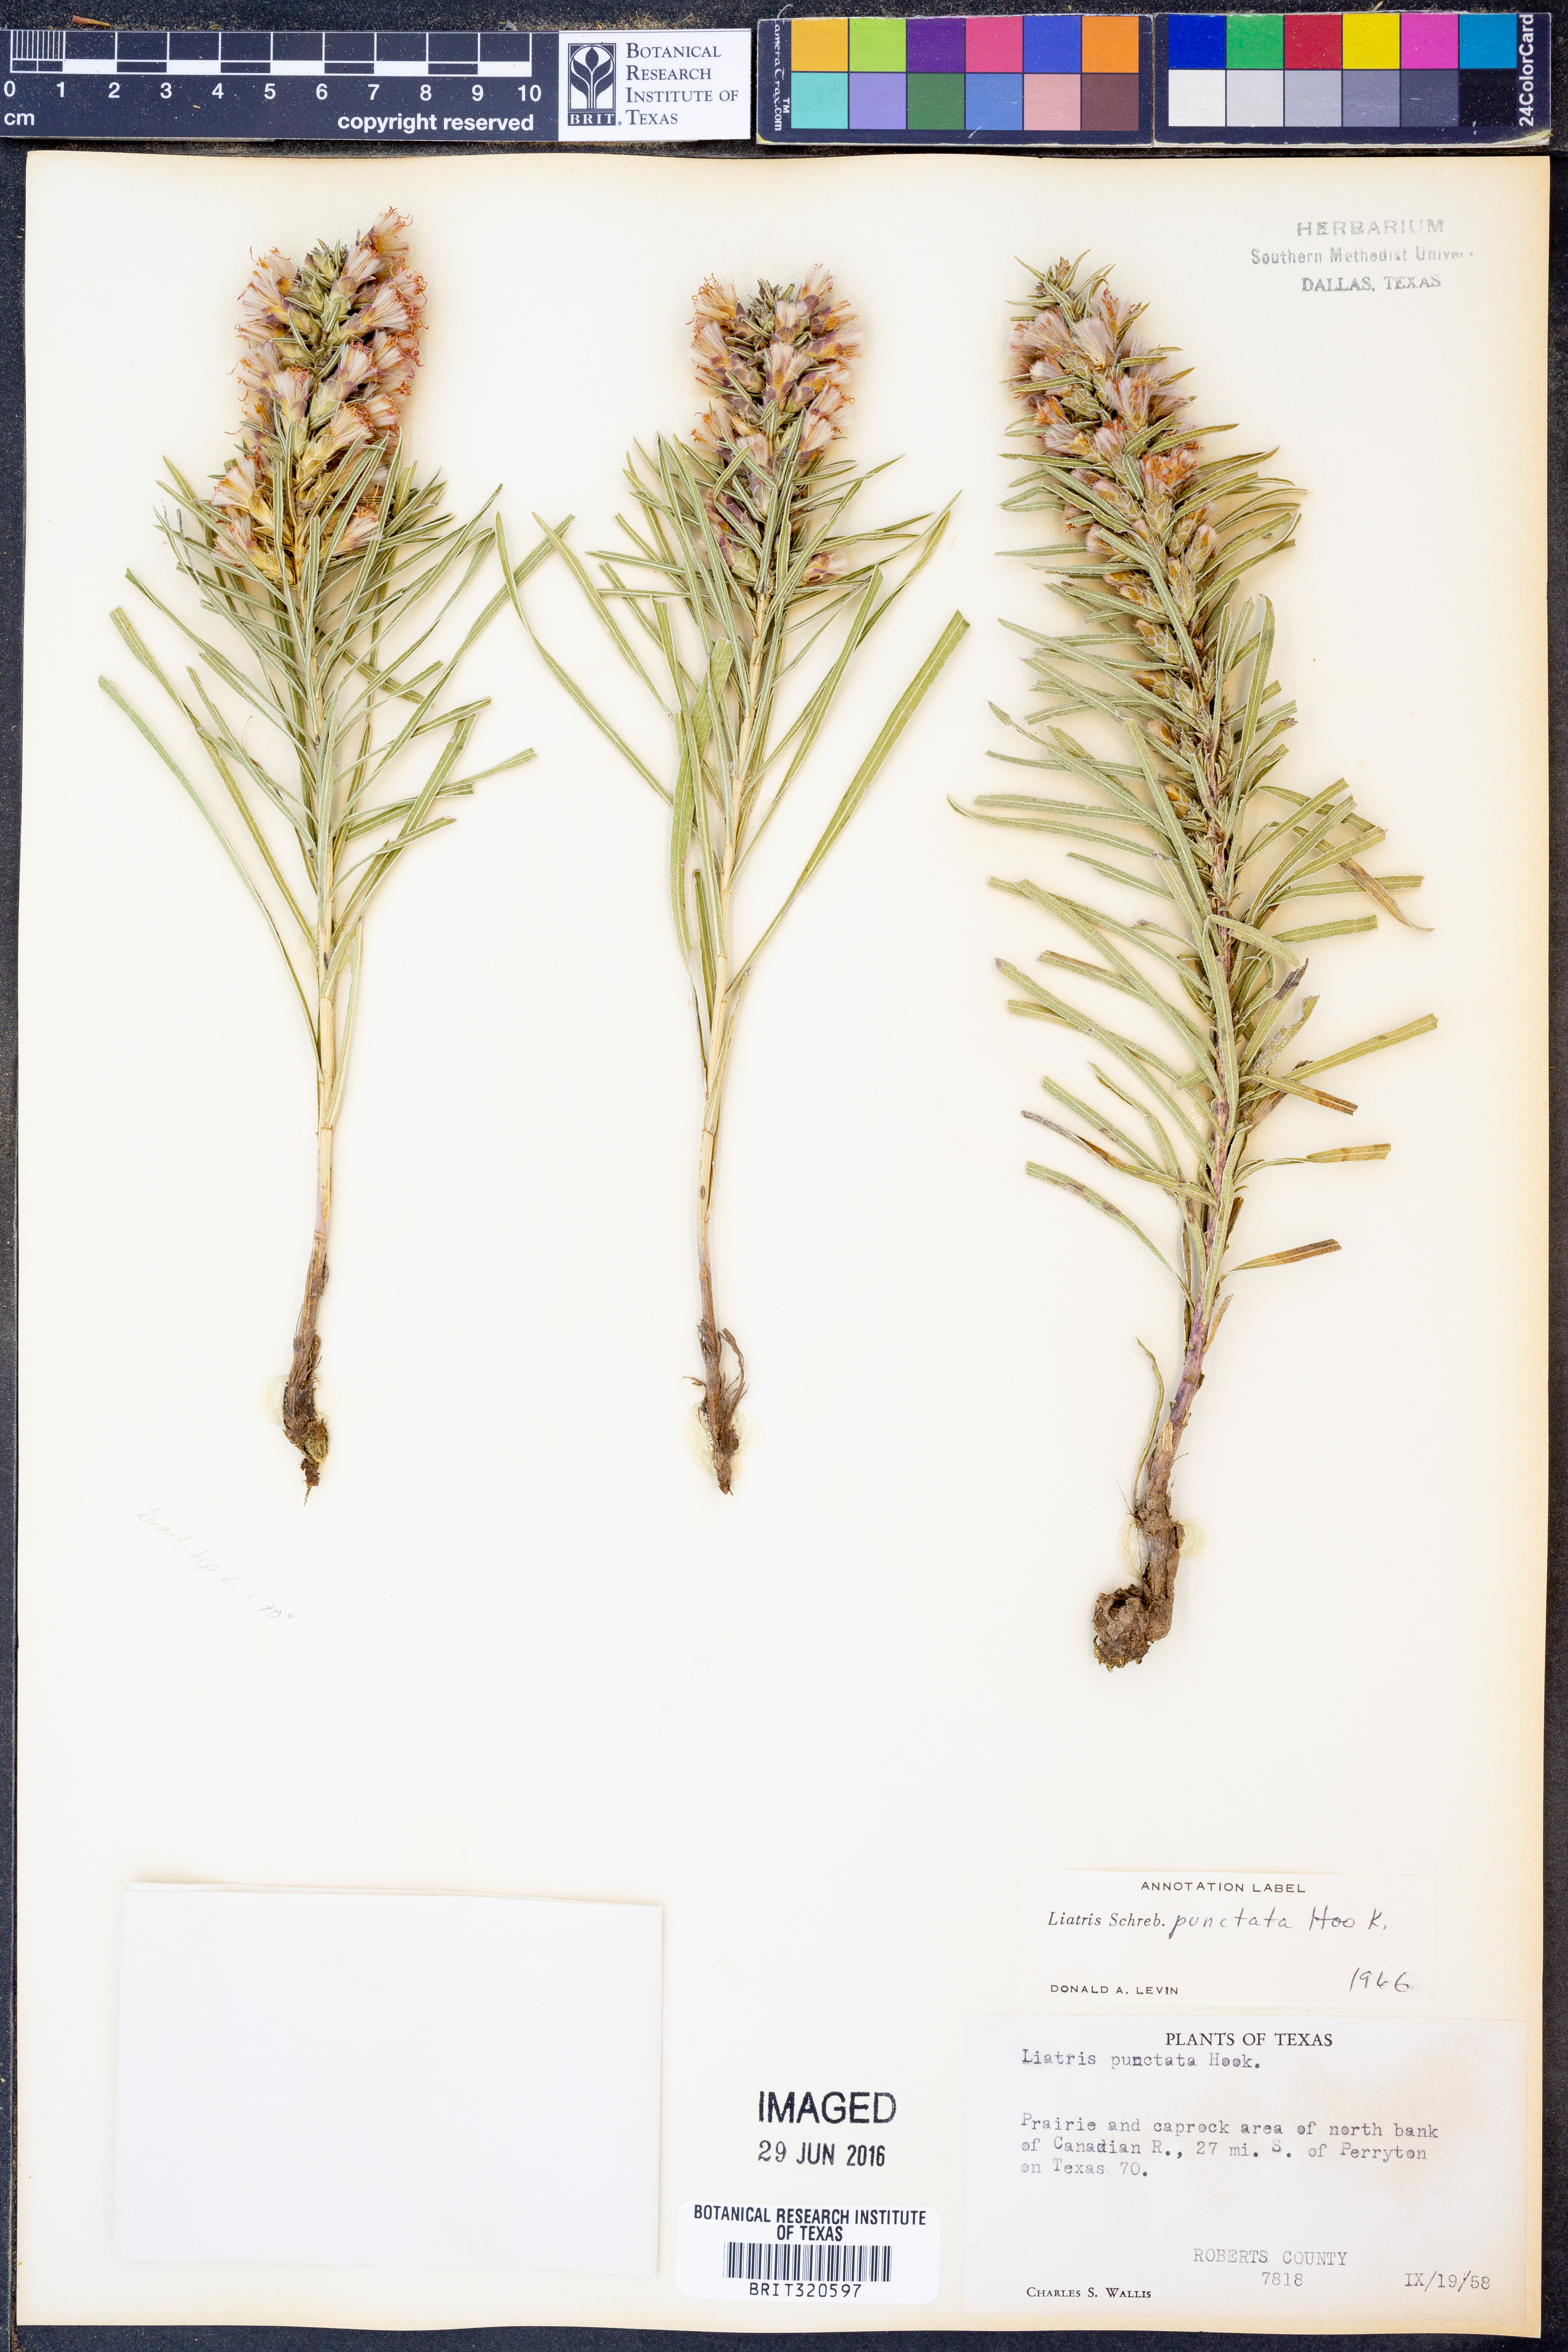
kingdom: Plantae
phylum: Tracheophyta
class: Magnoliopsida
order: Asterales
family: Asteraceae
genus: Liatris
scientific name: Liatris punctata
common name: Dotted gayfeather
